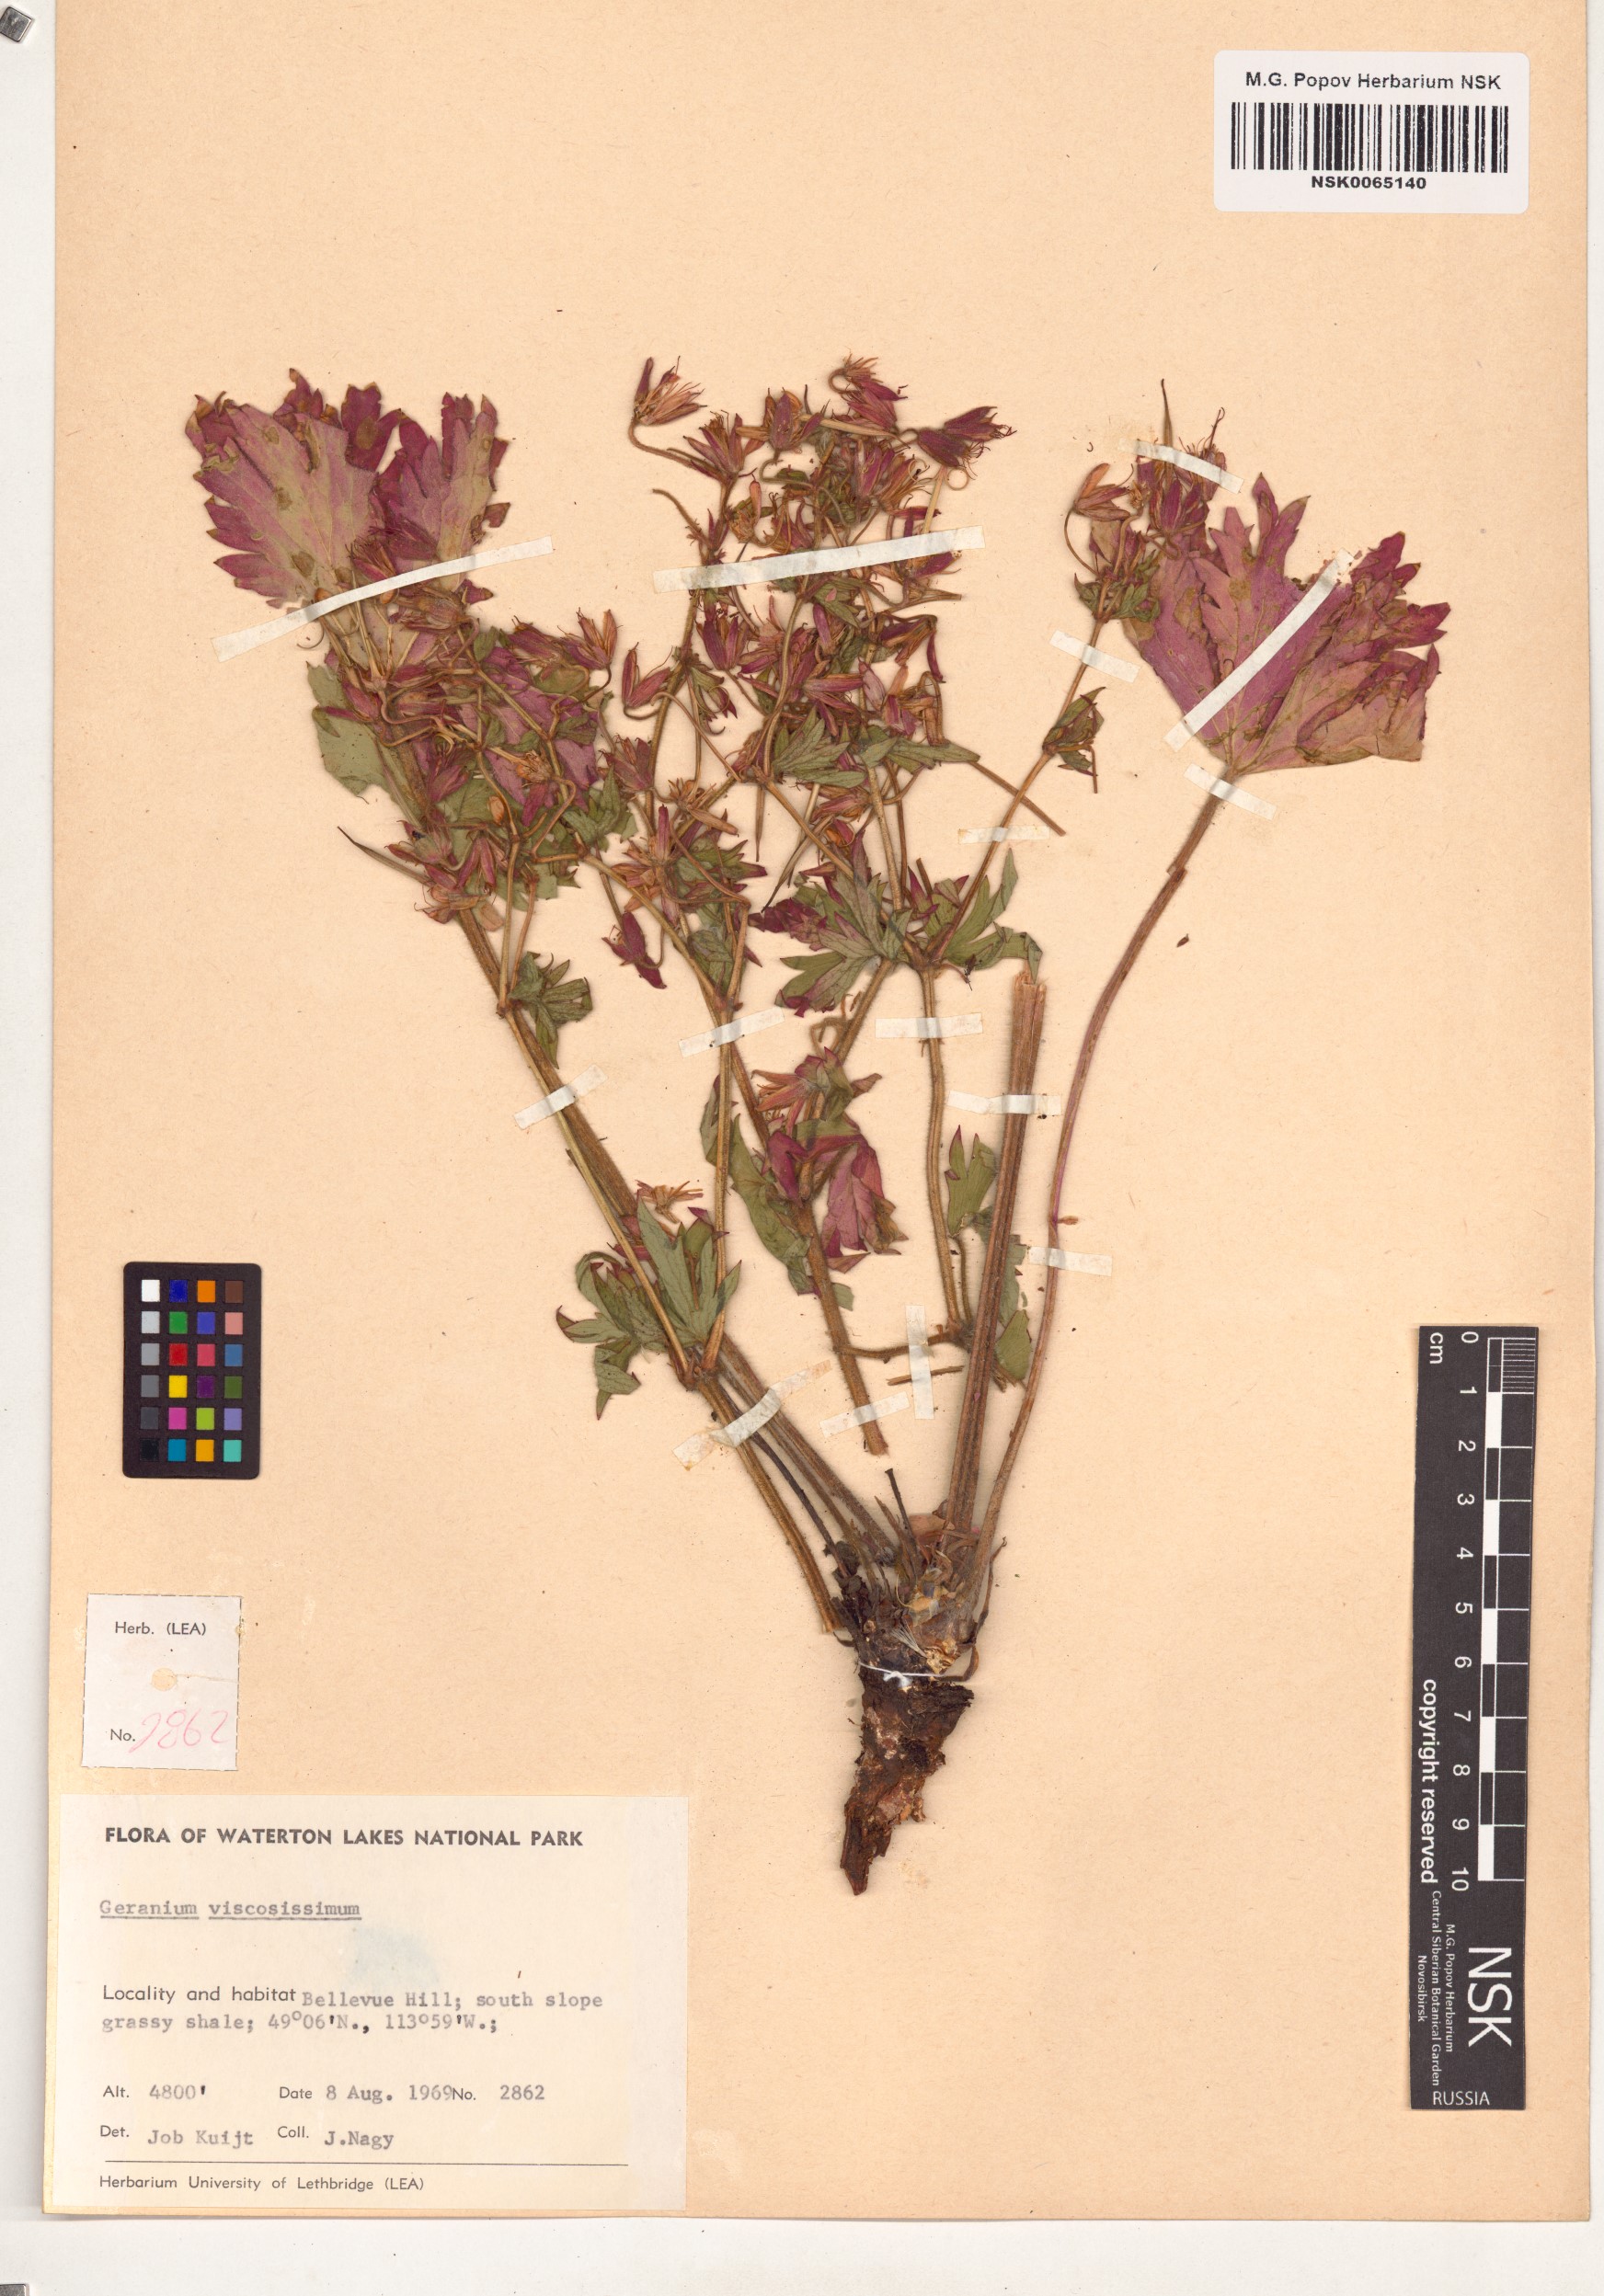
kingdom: Plantae
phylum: Tracheophyta
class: Magnoliopsida
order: Geraniales
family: Geraniaceae
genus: Geranium
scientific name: Geranium viscosissimum
